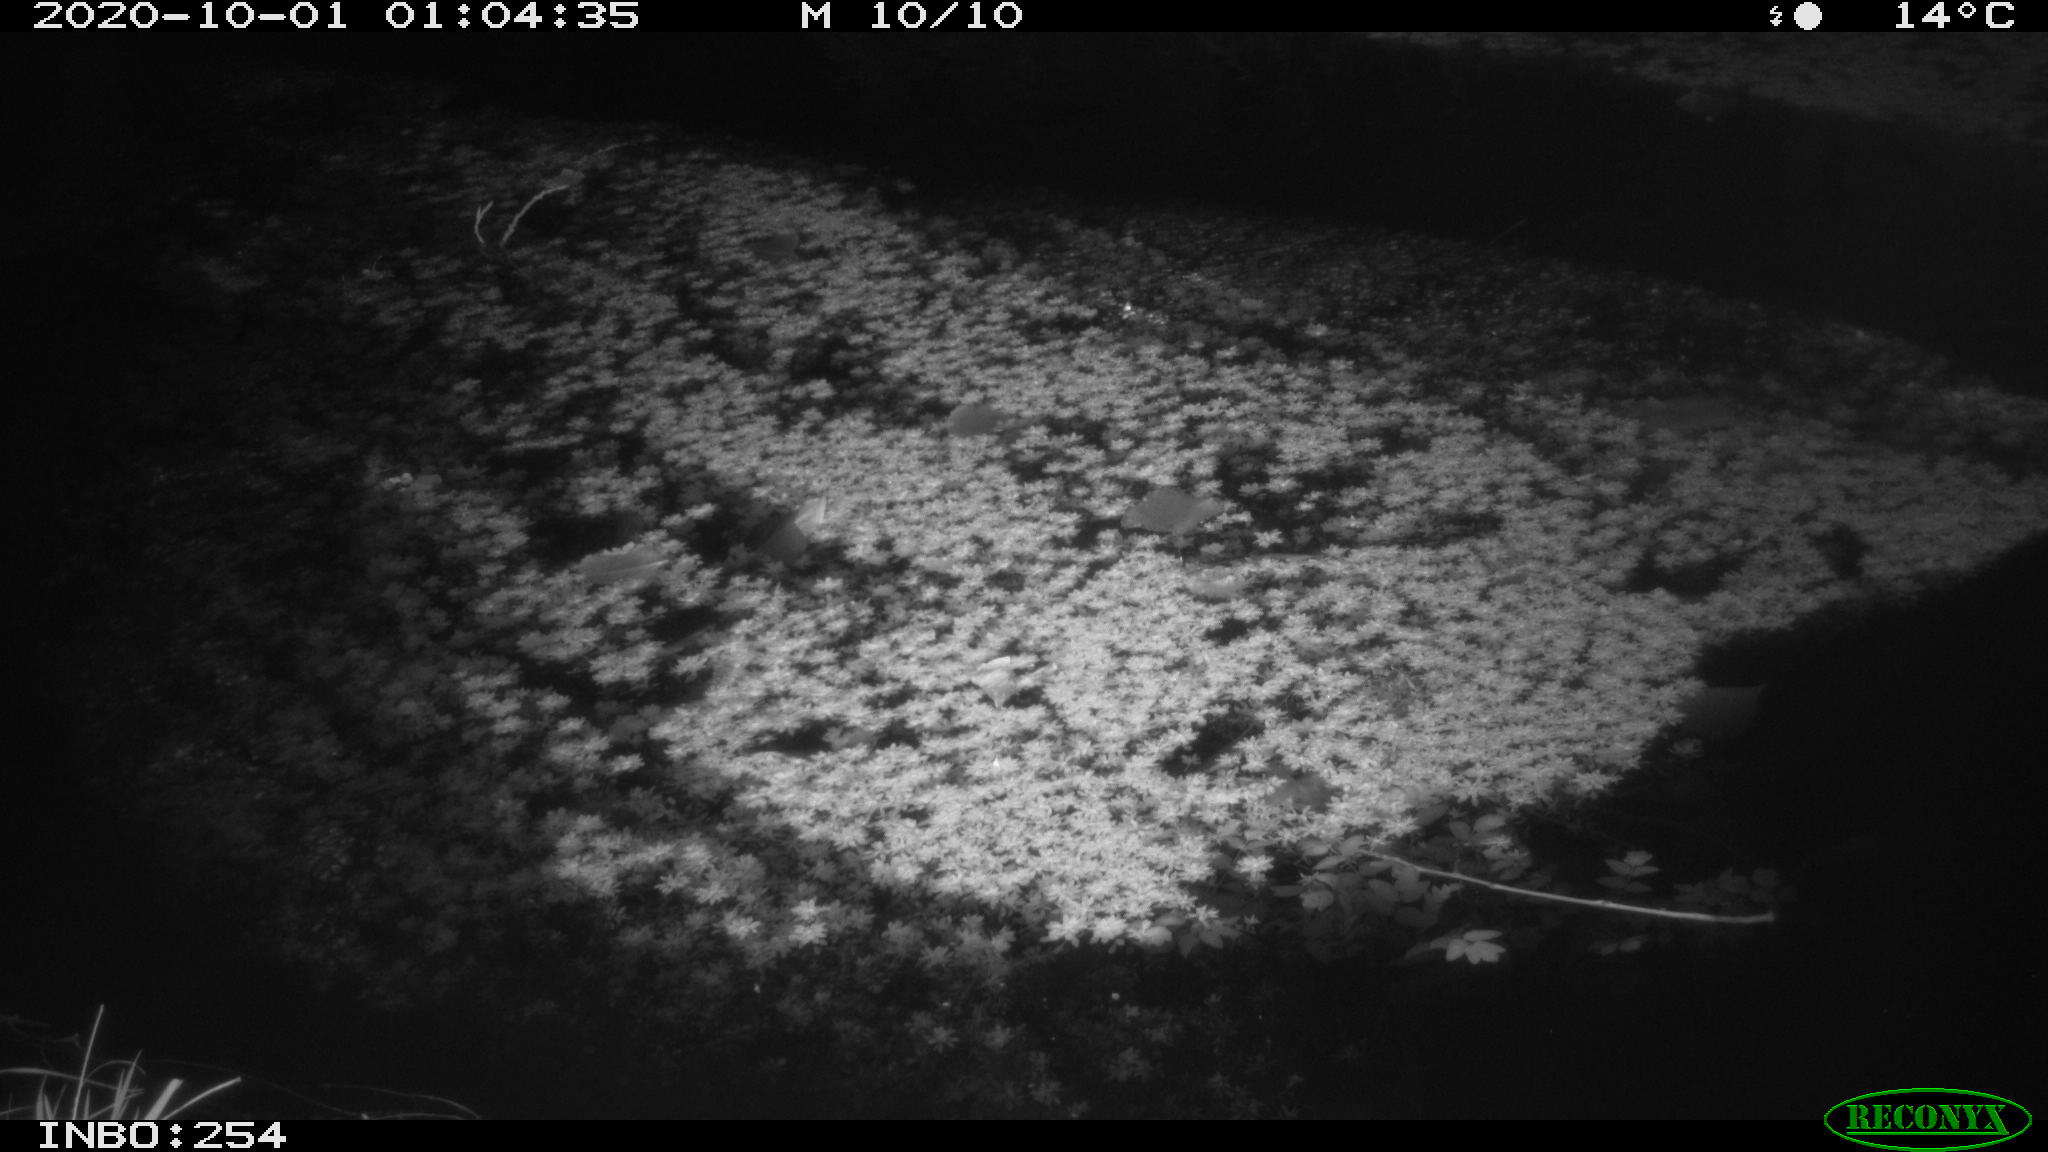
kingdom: Animalia
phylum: Chordata
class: Mammalia
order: Rodentia
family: Muridae
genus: Rattus
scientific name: Rattus norvegicus
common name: Brown rat
